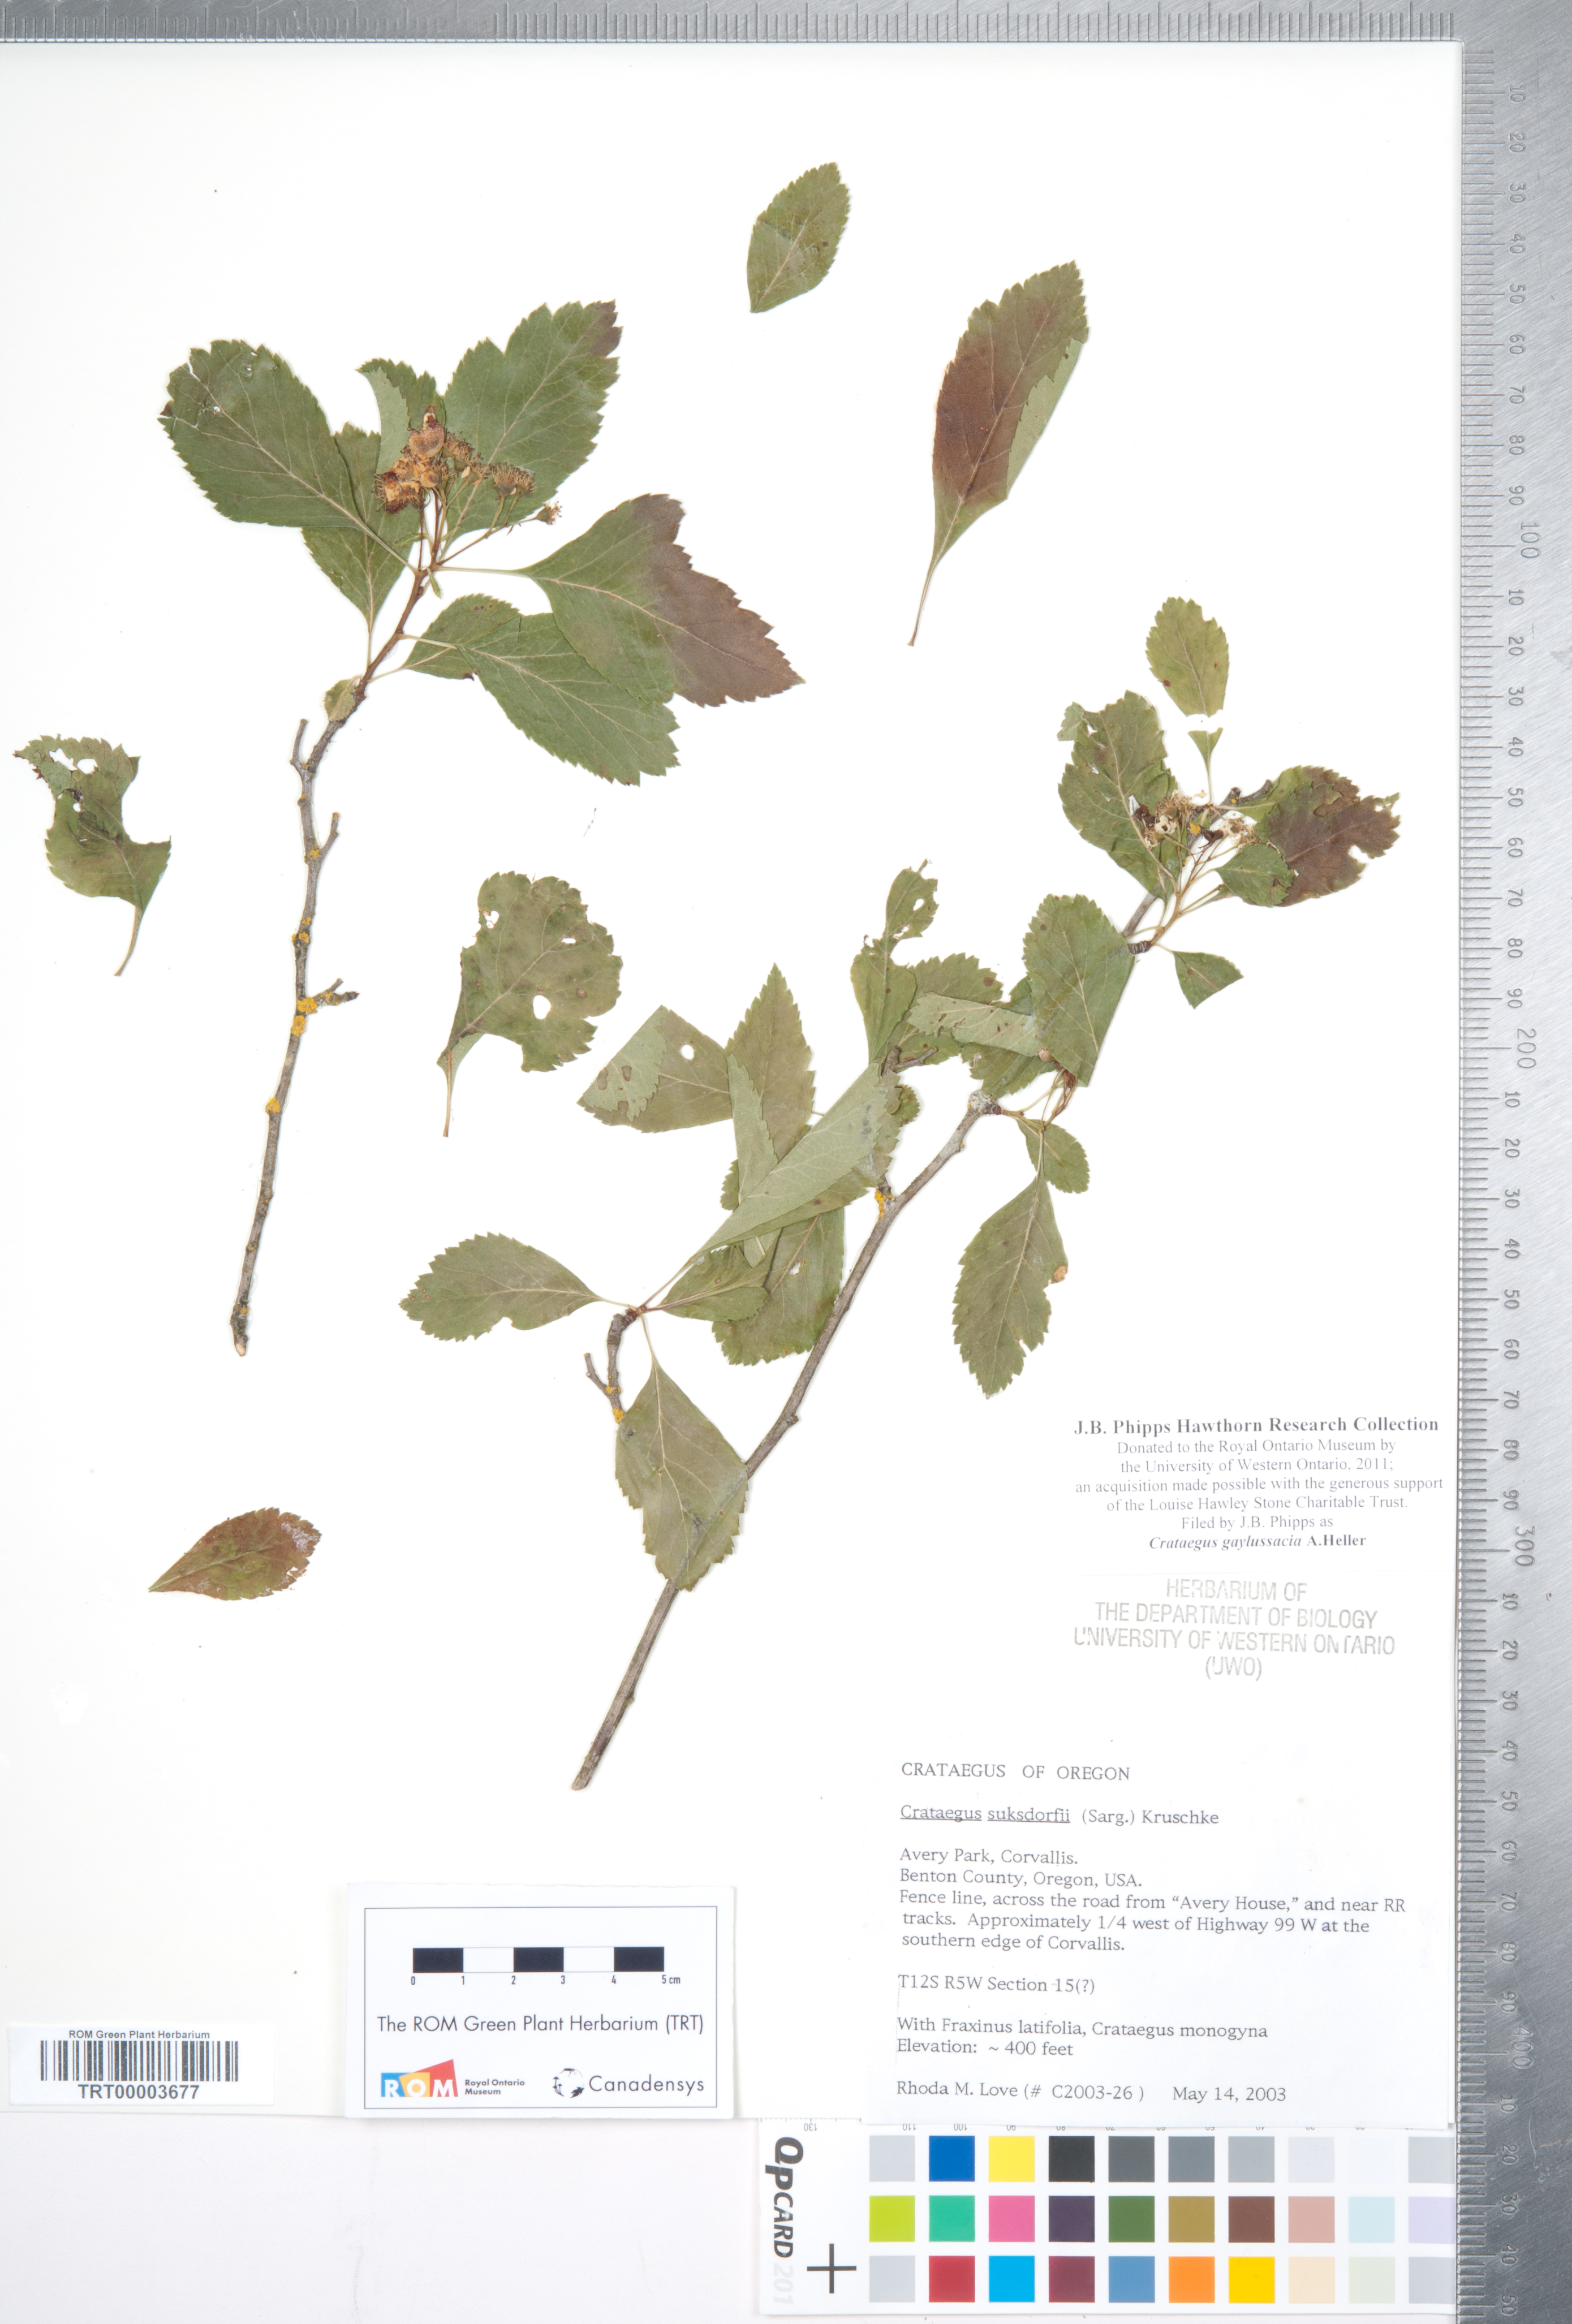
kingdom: Plantae
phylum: Tracheophyta
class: Magnoliopsida
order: Rosales
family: Rosaceae
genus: Crataegus
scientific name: Crataegus gaylussacia
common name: Huckleberry hawthorn
